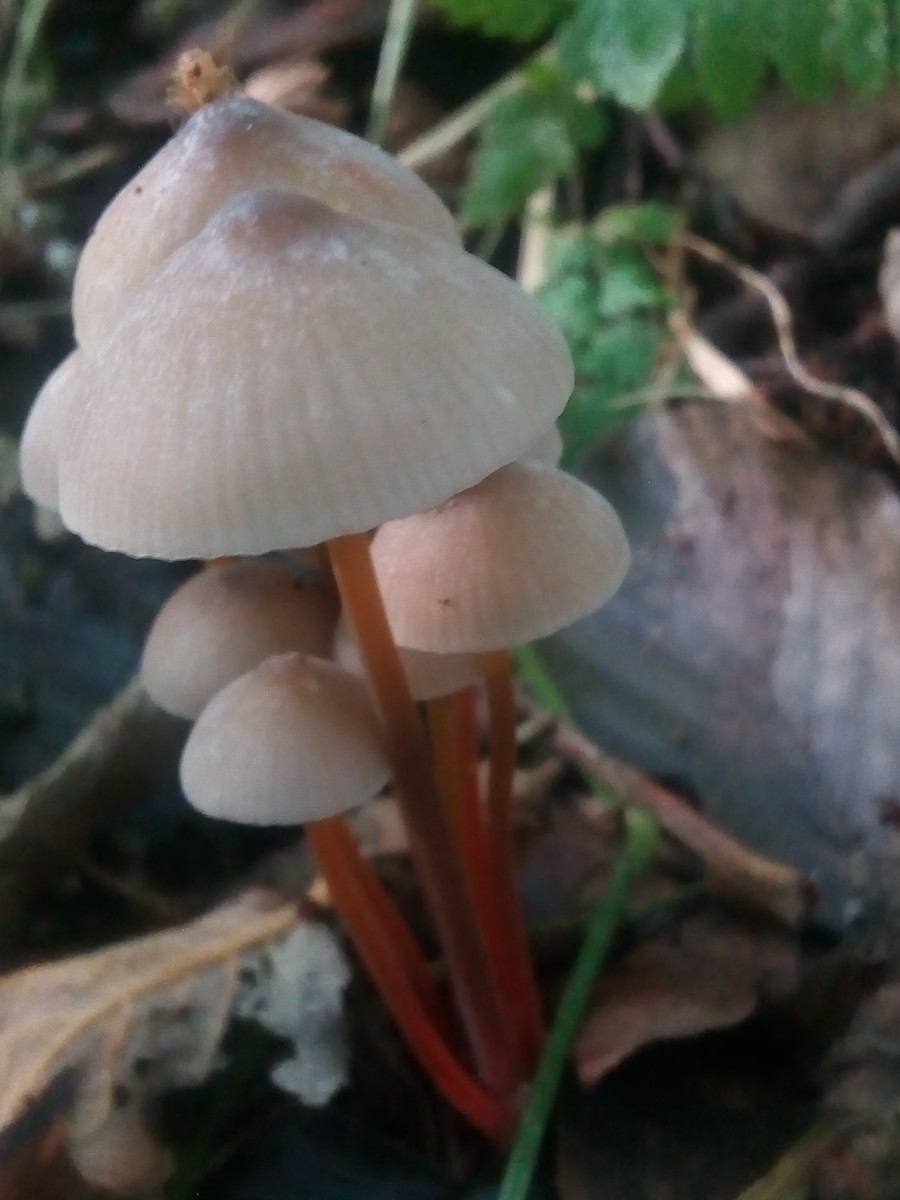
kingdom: Fungi
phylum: Basidiomycota
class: Agaricomycetes
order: Agaricales
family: Mycenaceae
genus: Mycena
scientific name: Mycena crocata
